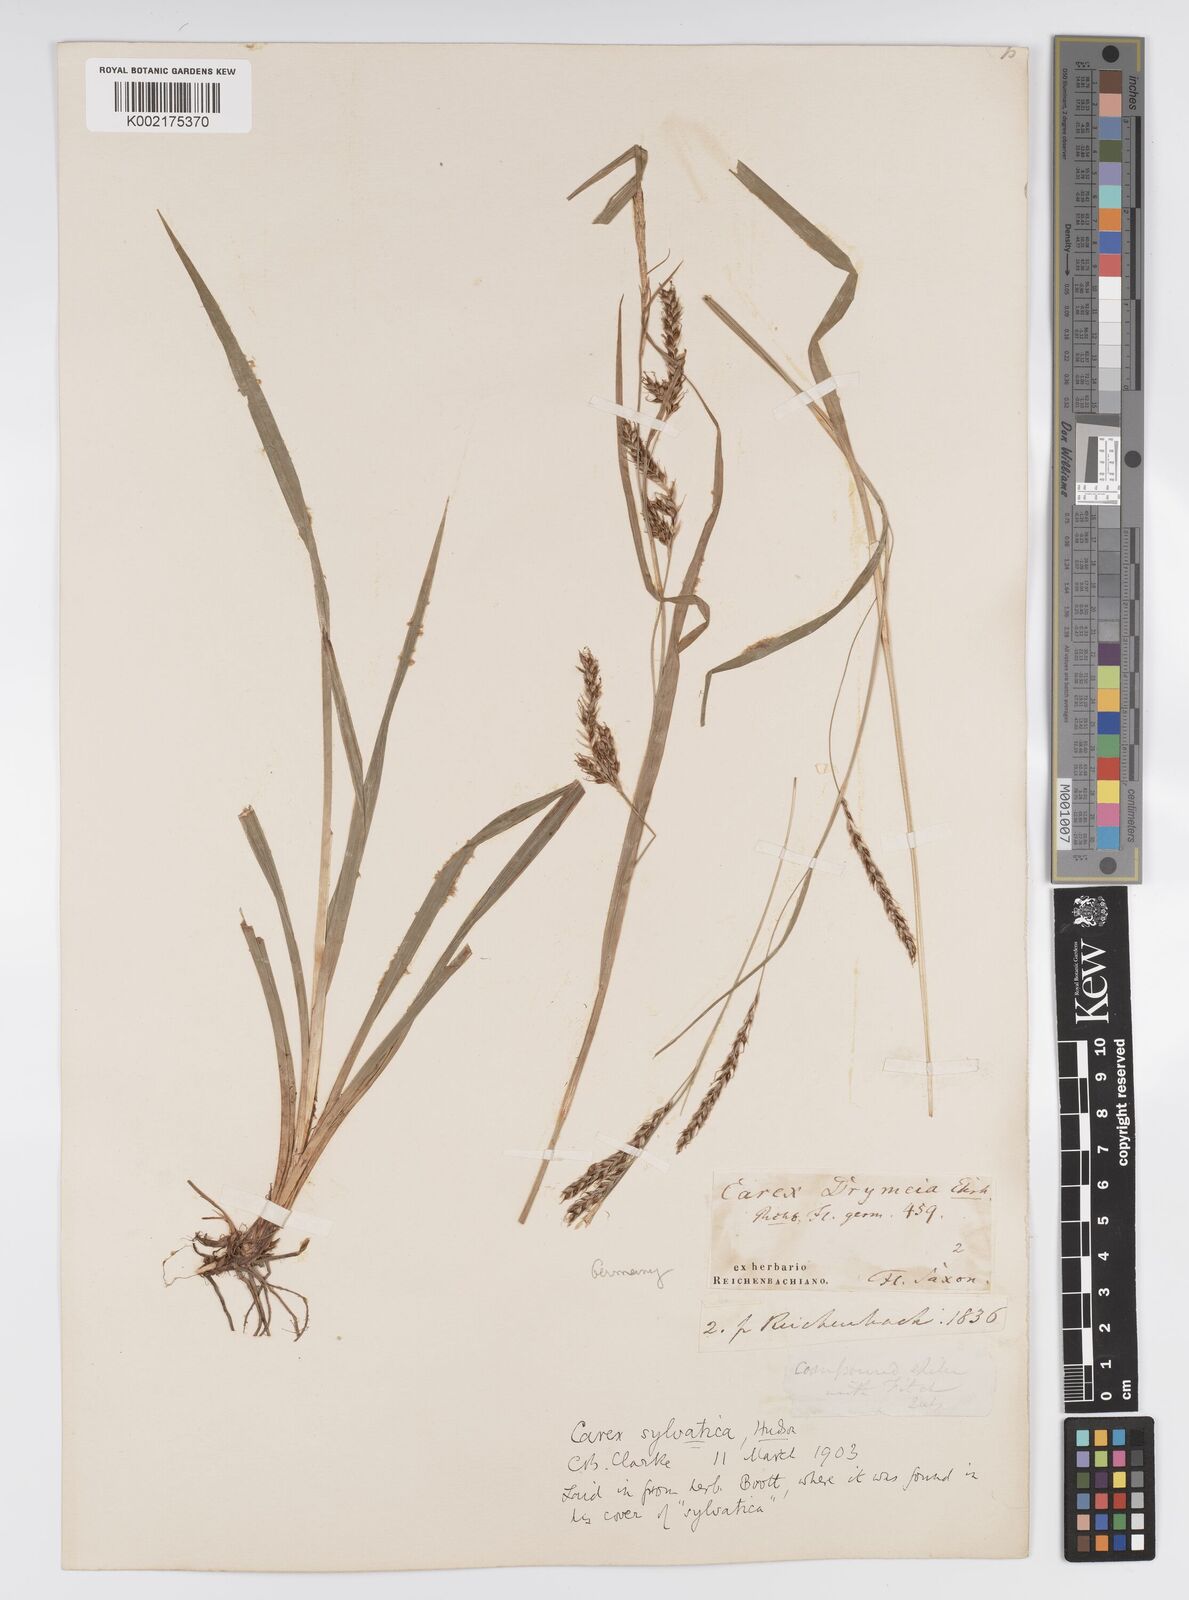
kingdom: Plantae
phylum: Tracheophyta
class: Liliopsida
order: Poales
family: Cyperaceae
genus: Carex
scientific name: Carex sylvatica
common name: Wood-sedge
